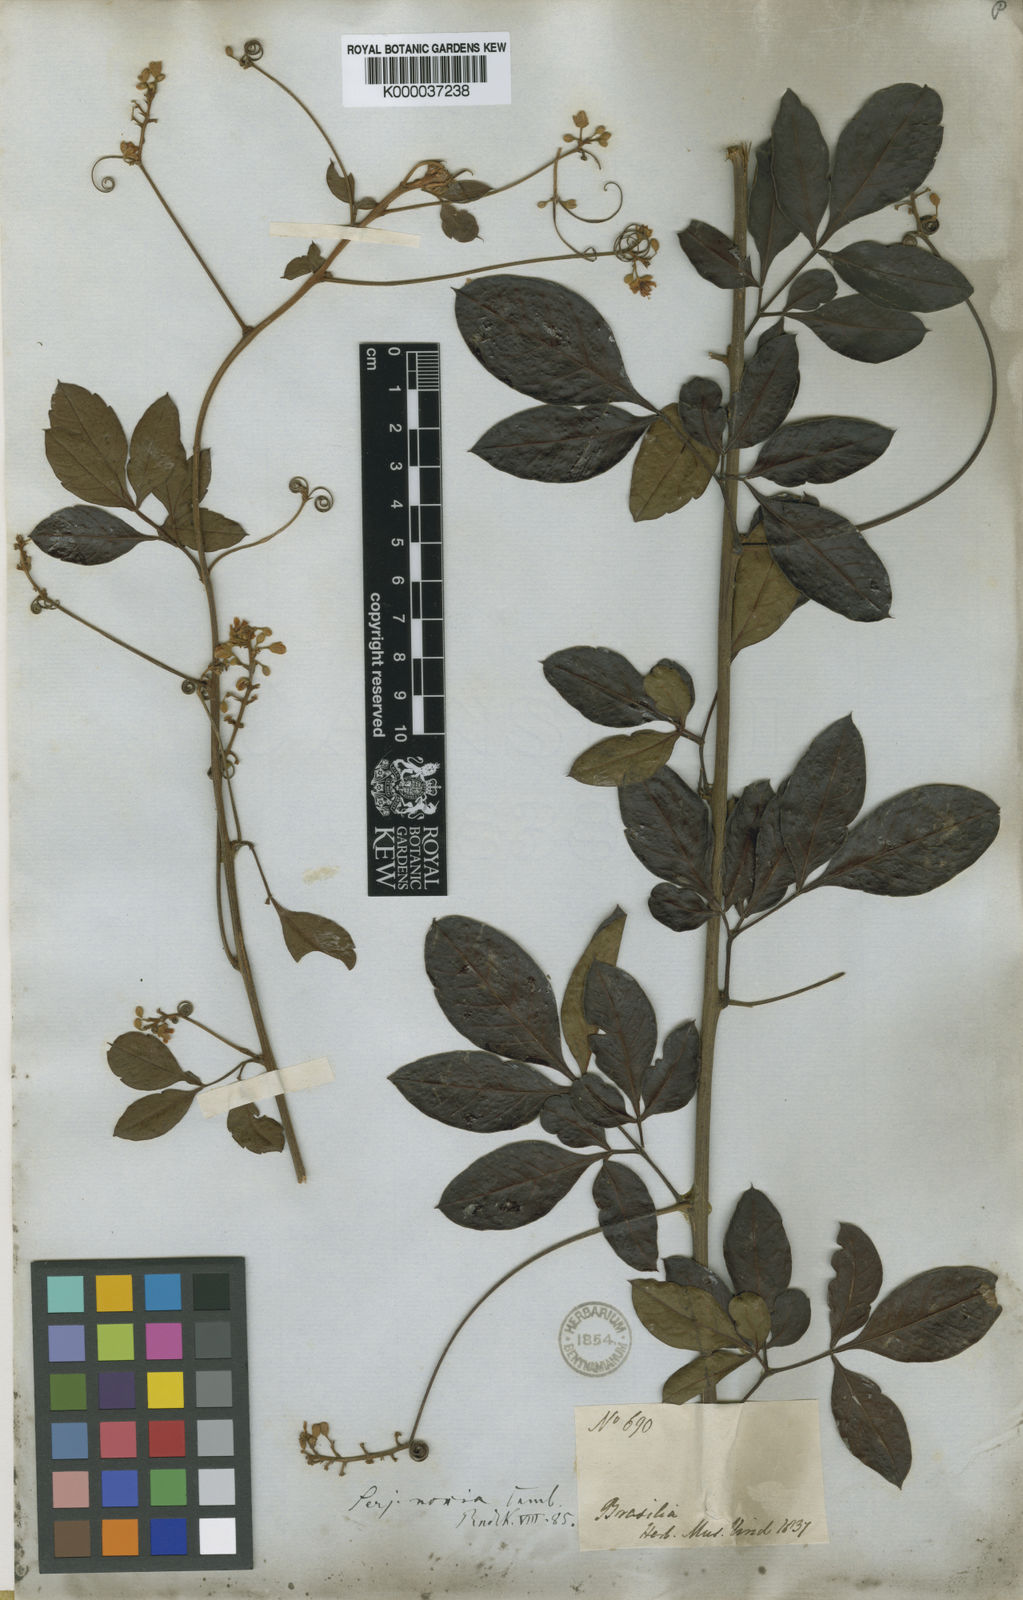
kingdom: Plantae
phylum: Tracheophyta
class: Magnoliopsida
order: Sapindales
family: Sapindaceae
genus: Serjania
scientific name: Serjania noxia
